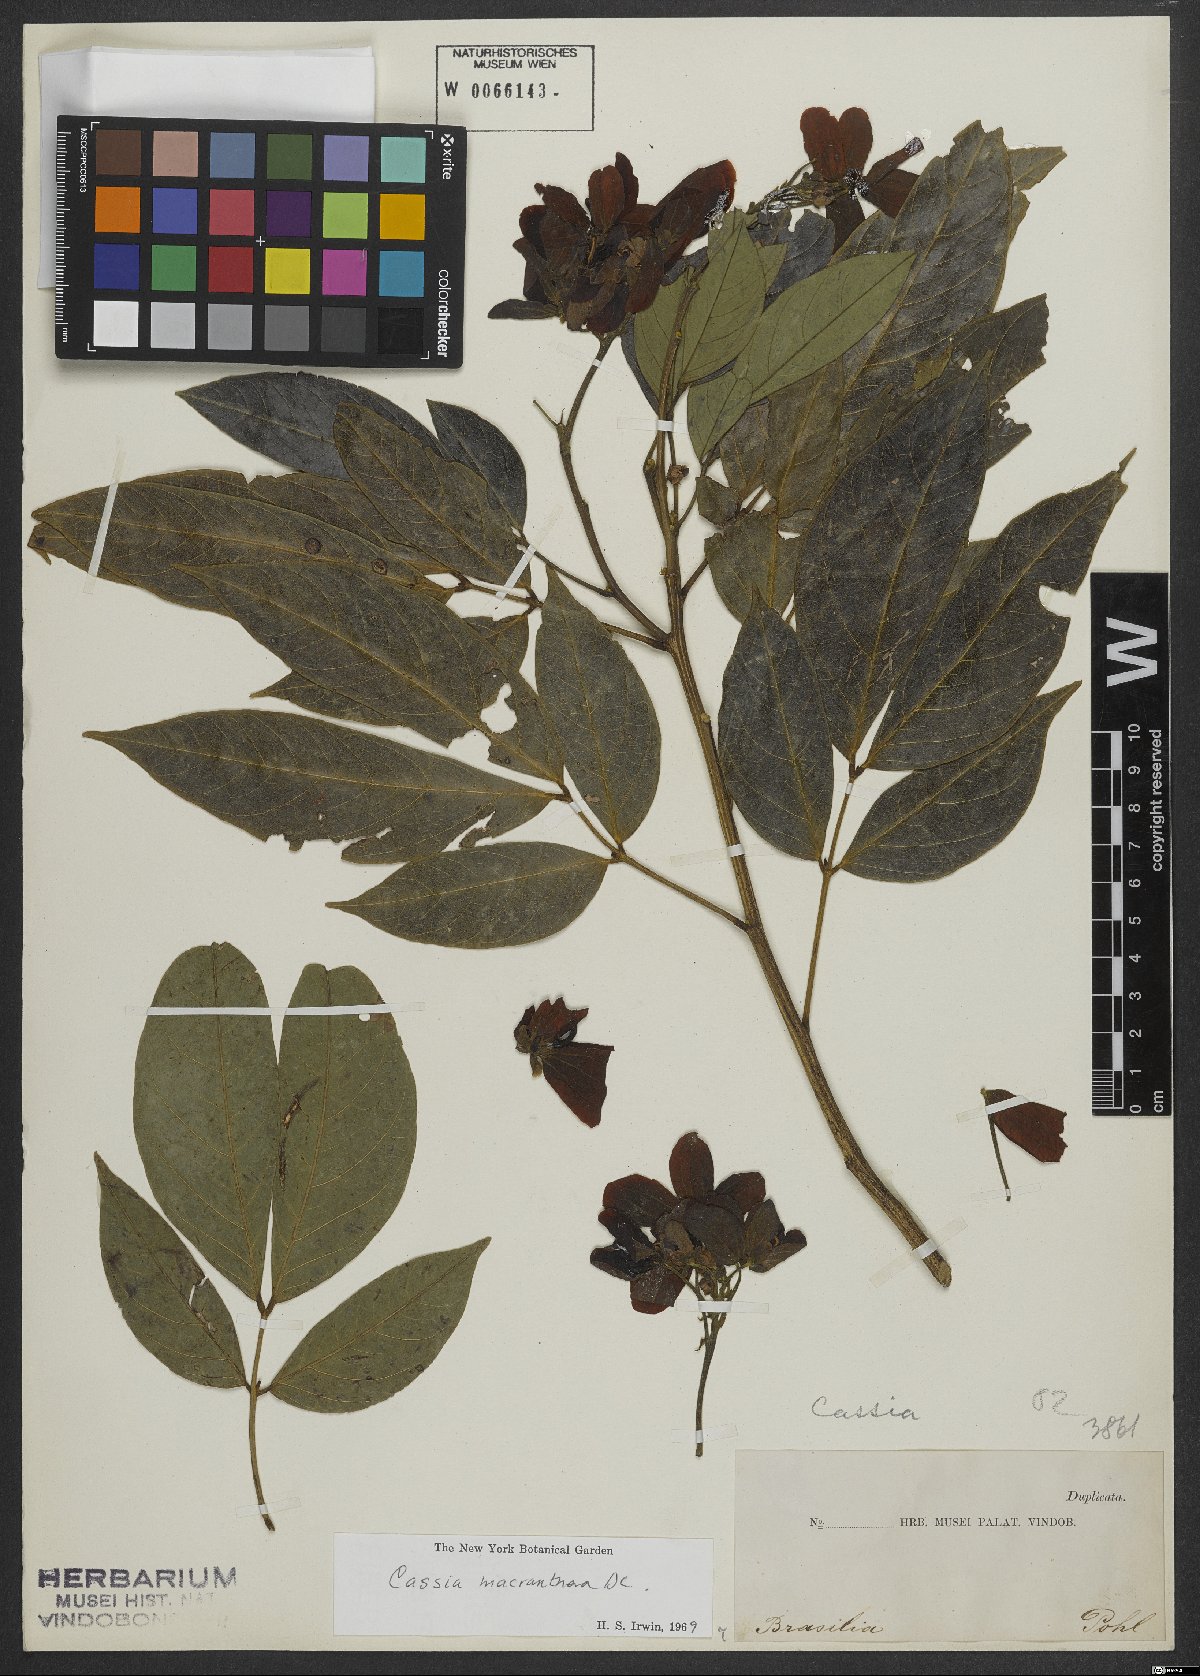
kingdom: Plantae
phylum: Tracheophyta
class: Magnoliopsida
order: Fabales
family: Fabaceae
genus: Senna
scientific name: Senna macranthera
